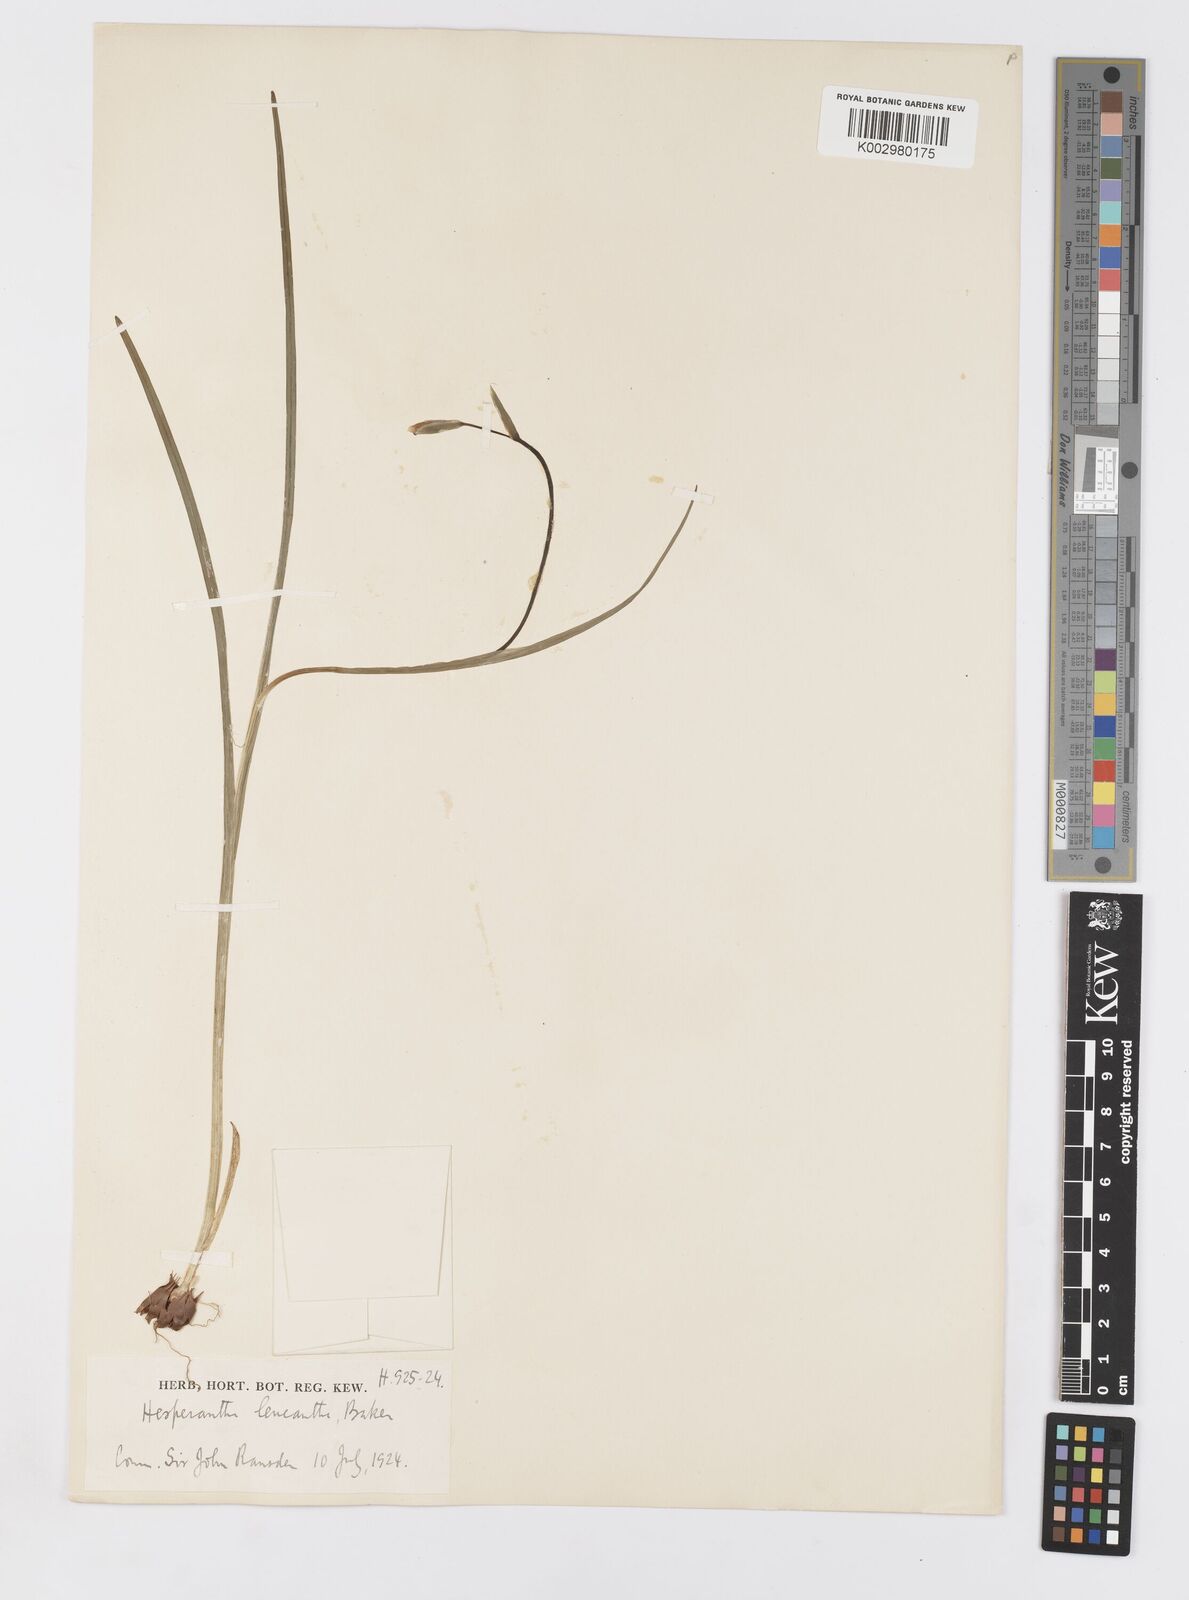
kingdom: Plantae
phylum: Tracheophyta
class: Liliopsida
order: Asparagales
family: Iridaceae
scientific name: Iridaceae
